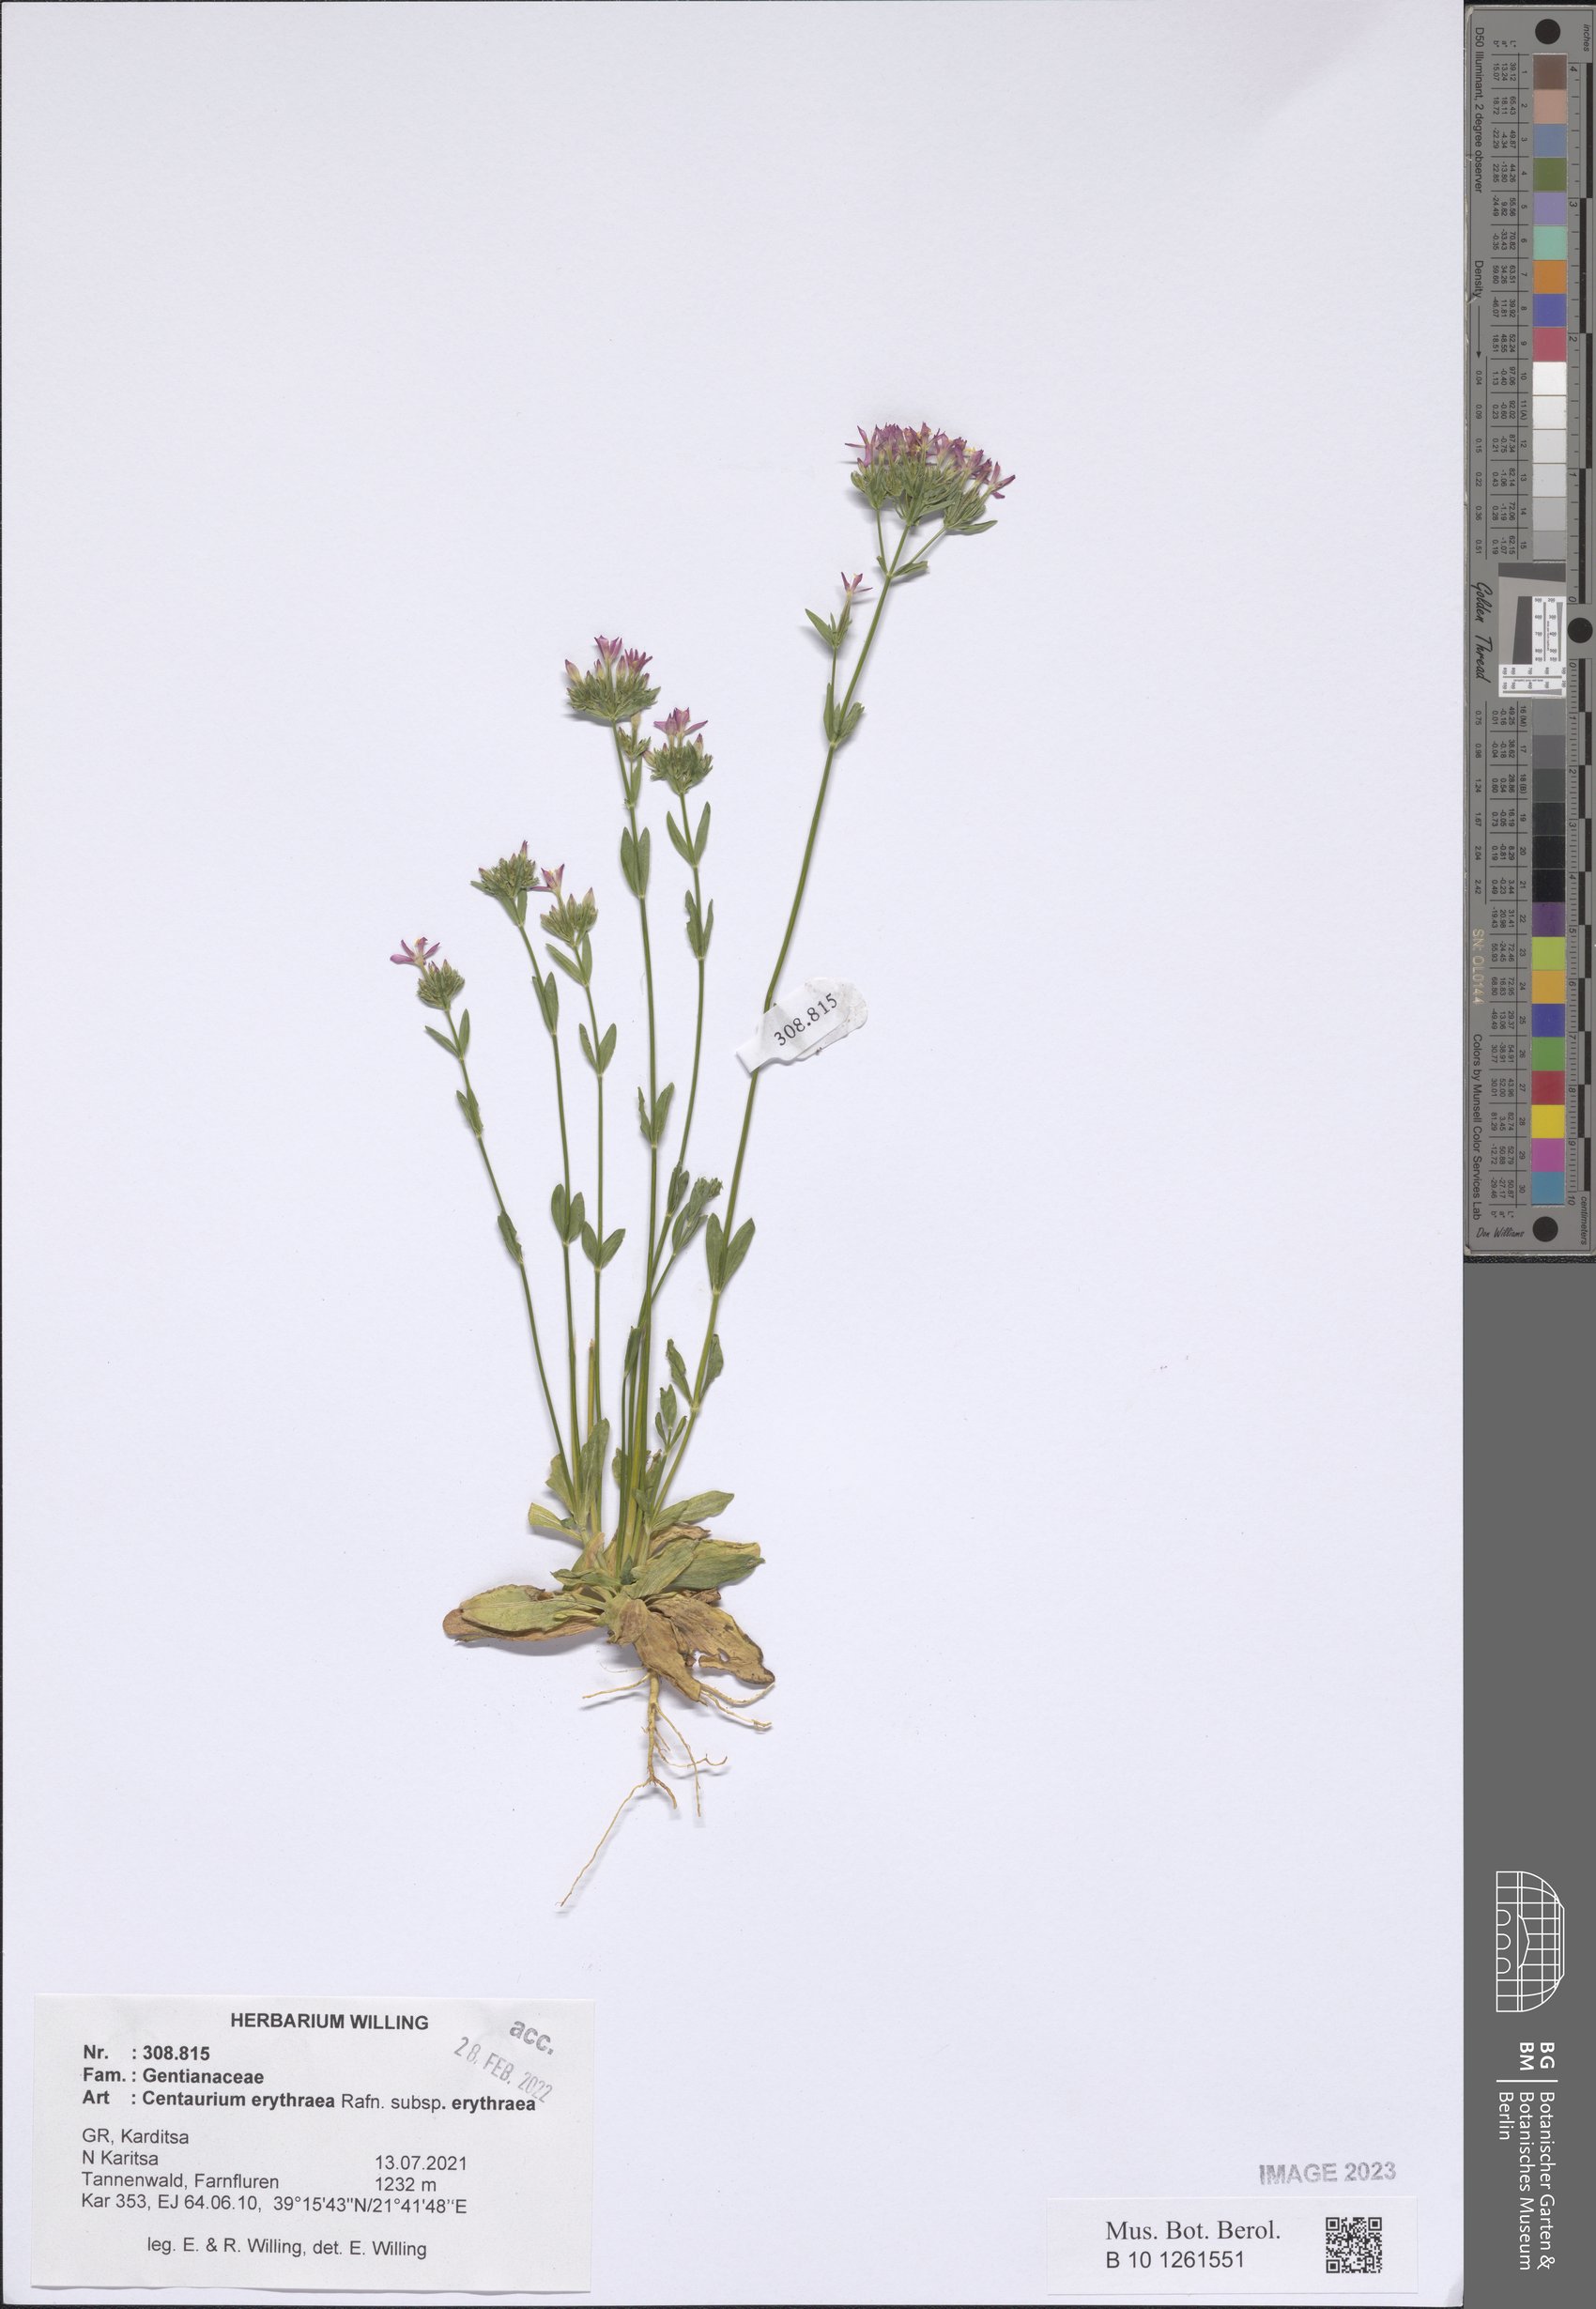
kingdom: Plantae
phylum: Tracheophyta
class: Magnoliopsida
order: Gentianales
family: Gentianaceae
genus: Centaurium
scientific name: Centaurium erythraea
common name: Common centaury
